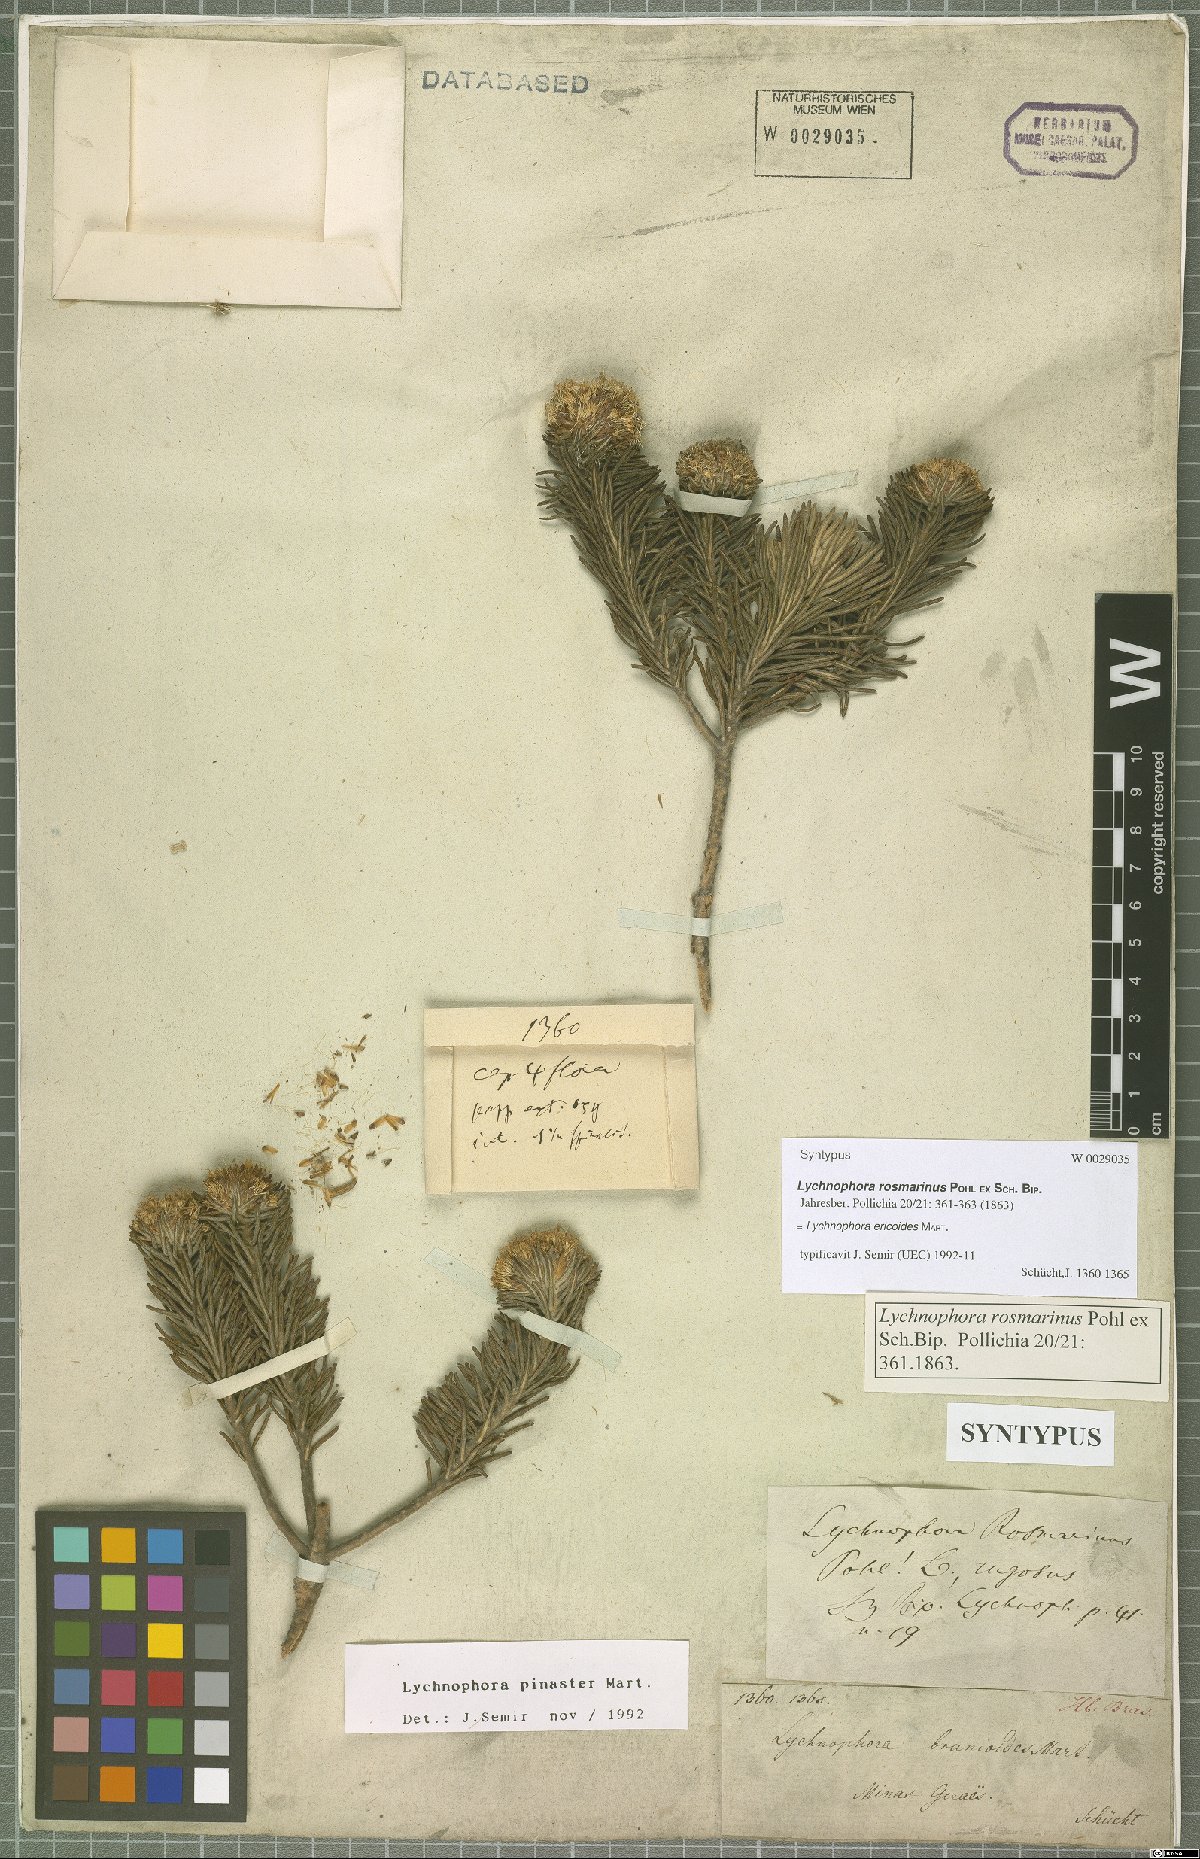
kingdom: Plantae
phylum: Tracheophyta
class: Magnoliopsida
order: Asterales
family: Asteraceae
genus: Lychnophora
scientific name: Lychnophora ericoides
